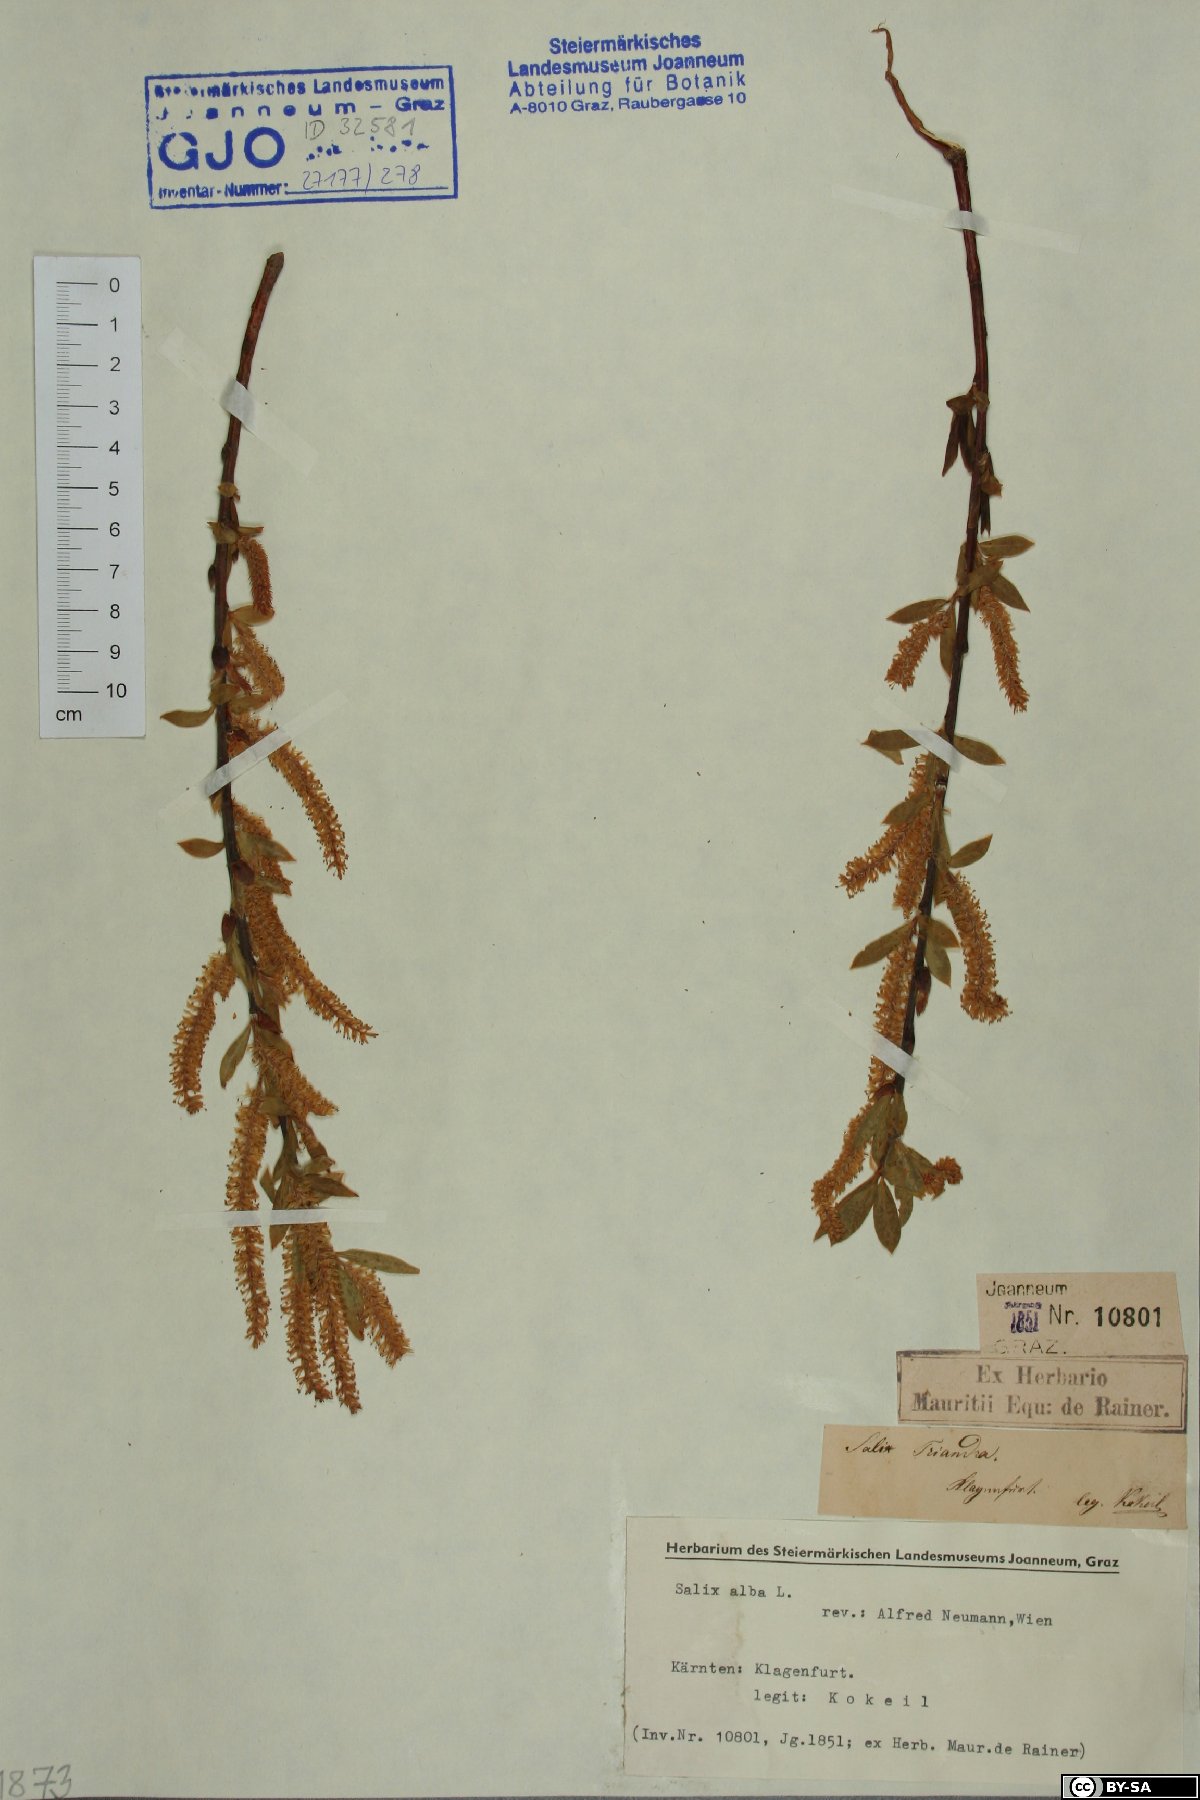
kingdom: Plantae
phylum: Tracheophyta
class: Magnoliopsida
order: Malpighiales
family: Salicaceae
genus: Salix
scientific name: Salix alba
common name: White willow
